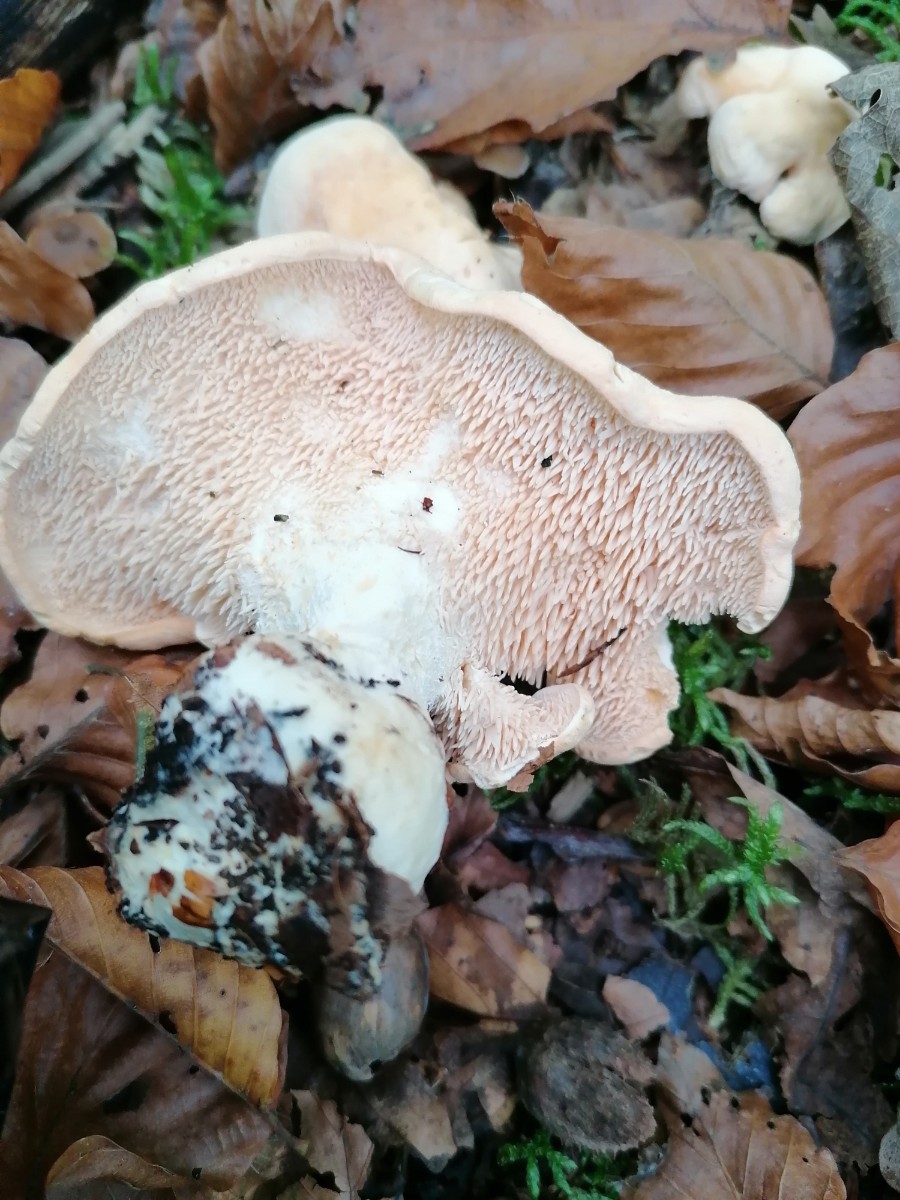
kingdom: Fungi
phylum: Basidiomycota
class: Agaricomycetes
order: Cantharellales
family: Hydnaceae
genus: Hydnum
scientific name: Hydnum repandum
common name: almindelig pigsvamp
